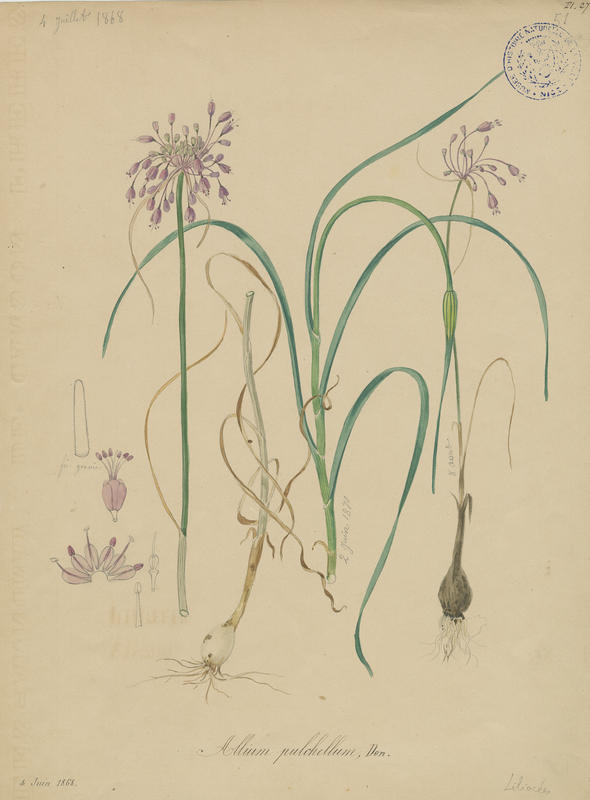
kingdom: Plantae
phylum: Tracheophyta
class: Liliopsida
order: Asparagales
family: Amaryllidaceae
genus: Allium
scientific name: Allium coloratum
